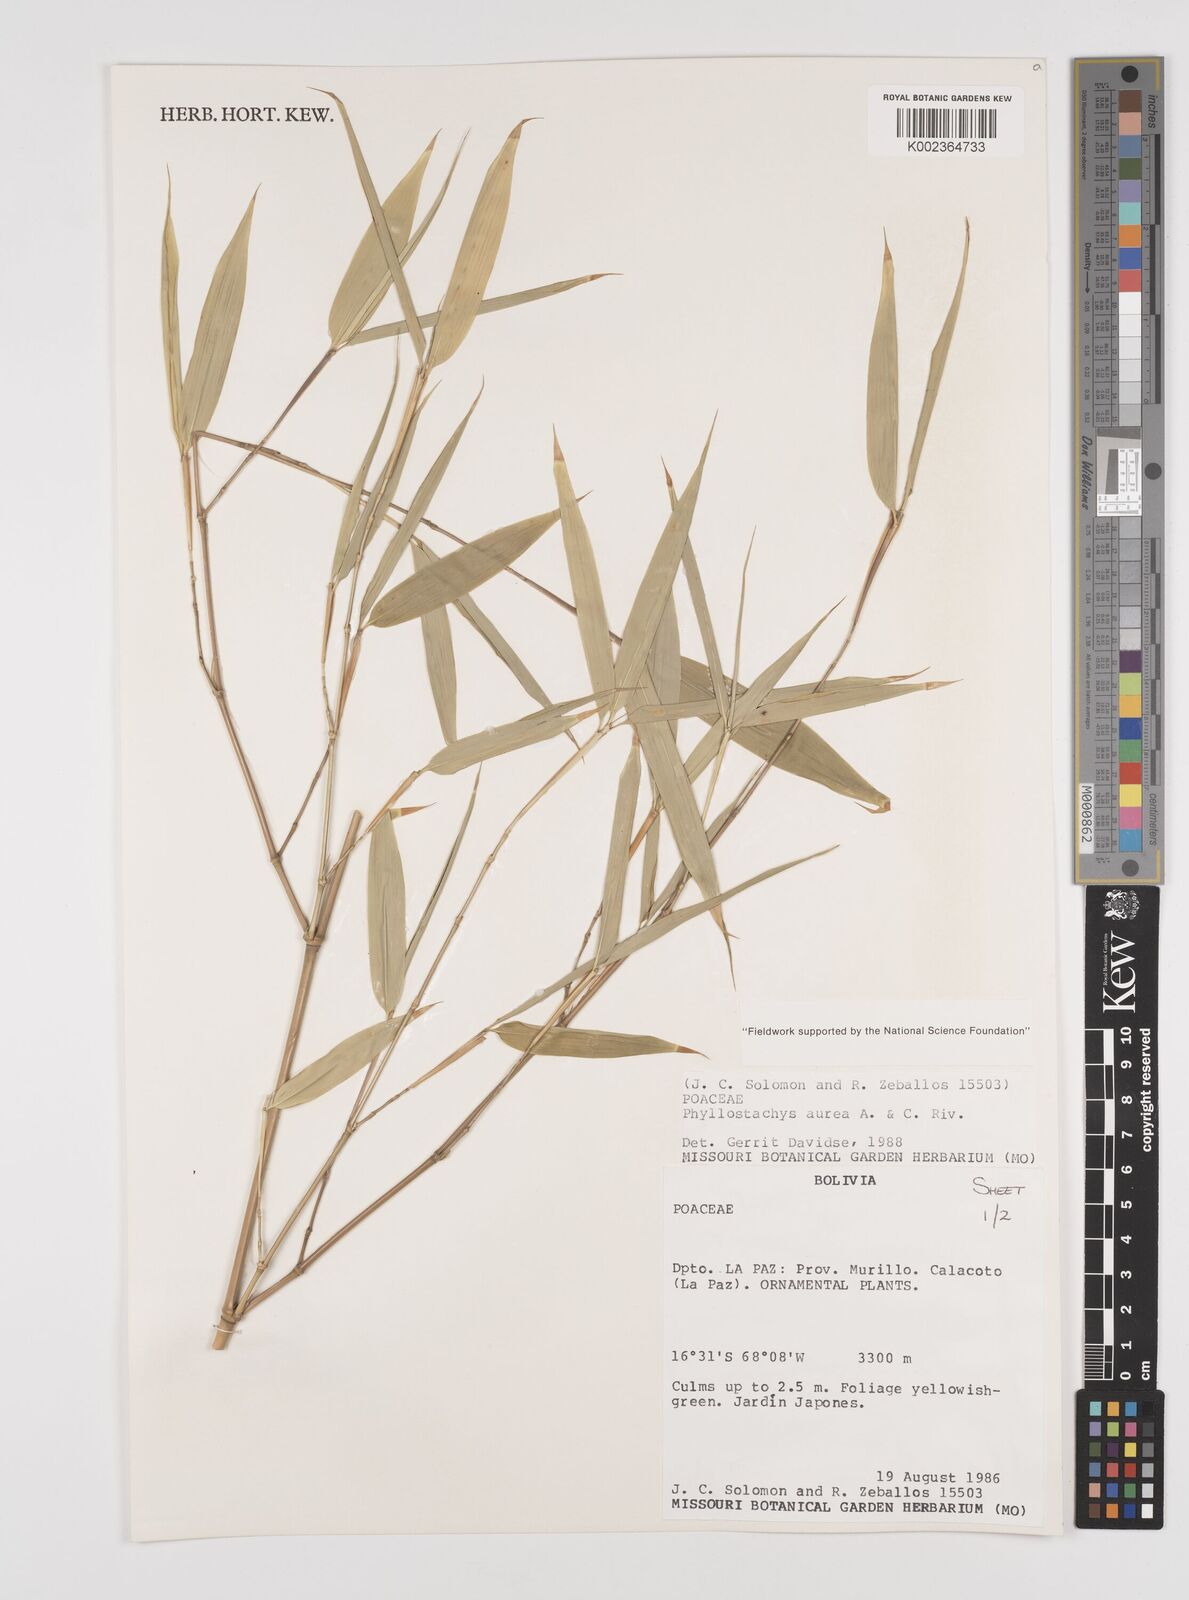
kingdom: Plantae
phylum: Tracheophyta
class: Liliopsida
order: Poales
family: Poaceae
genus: Phyllostachys
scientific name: Phyllostachys aurea
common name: Golden bamboo
